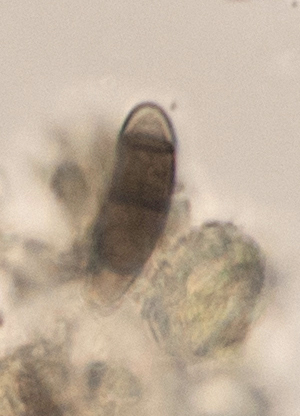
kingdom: Fungi
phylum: Ascomycota
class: Dothideomycetes
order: Hysteriales
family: Hysteriaceae
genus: Hysterium
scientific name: Hysterium pulicare
